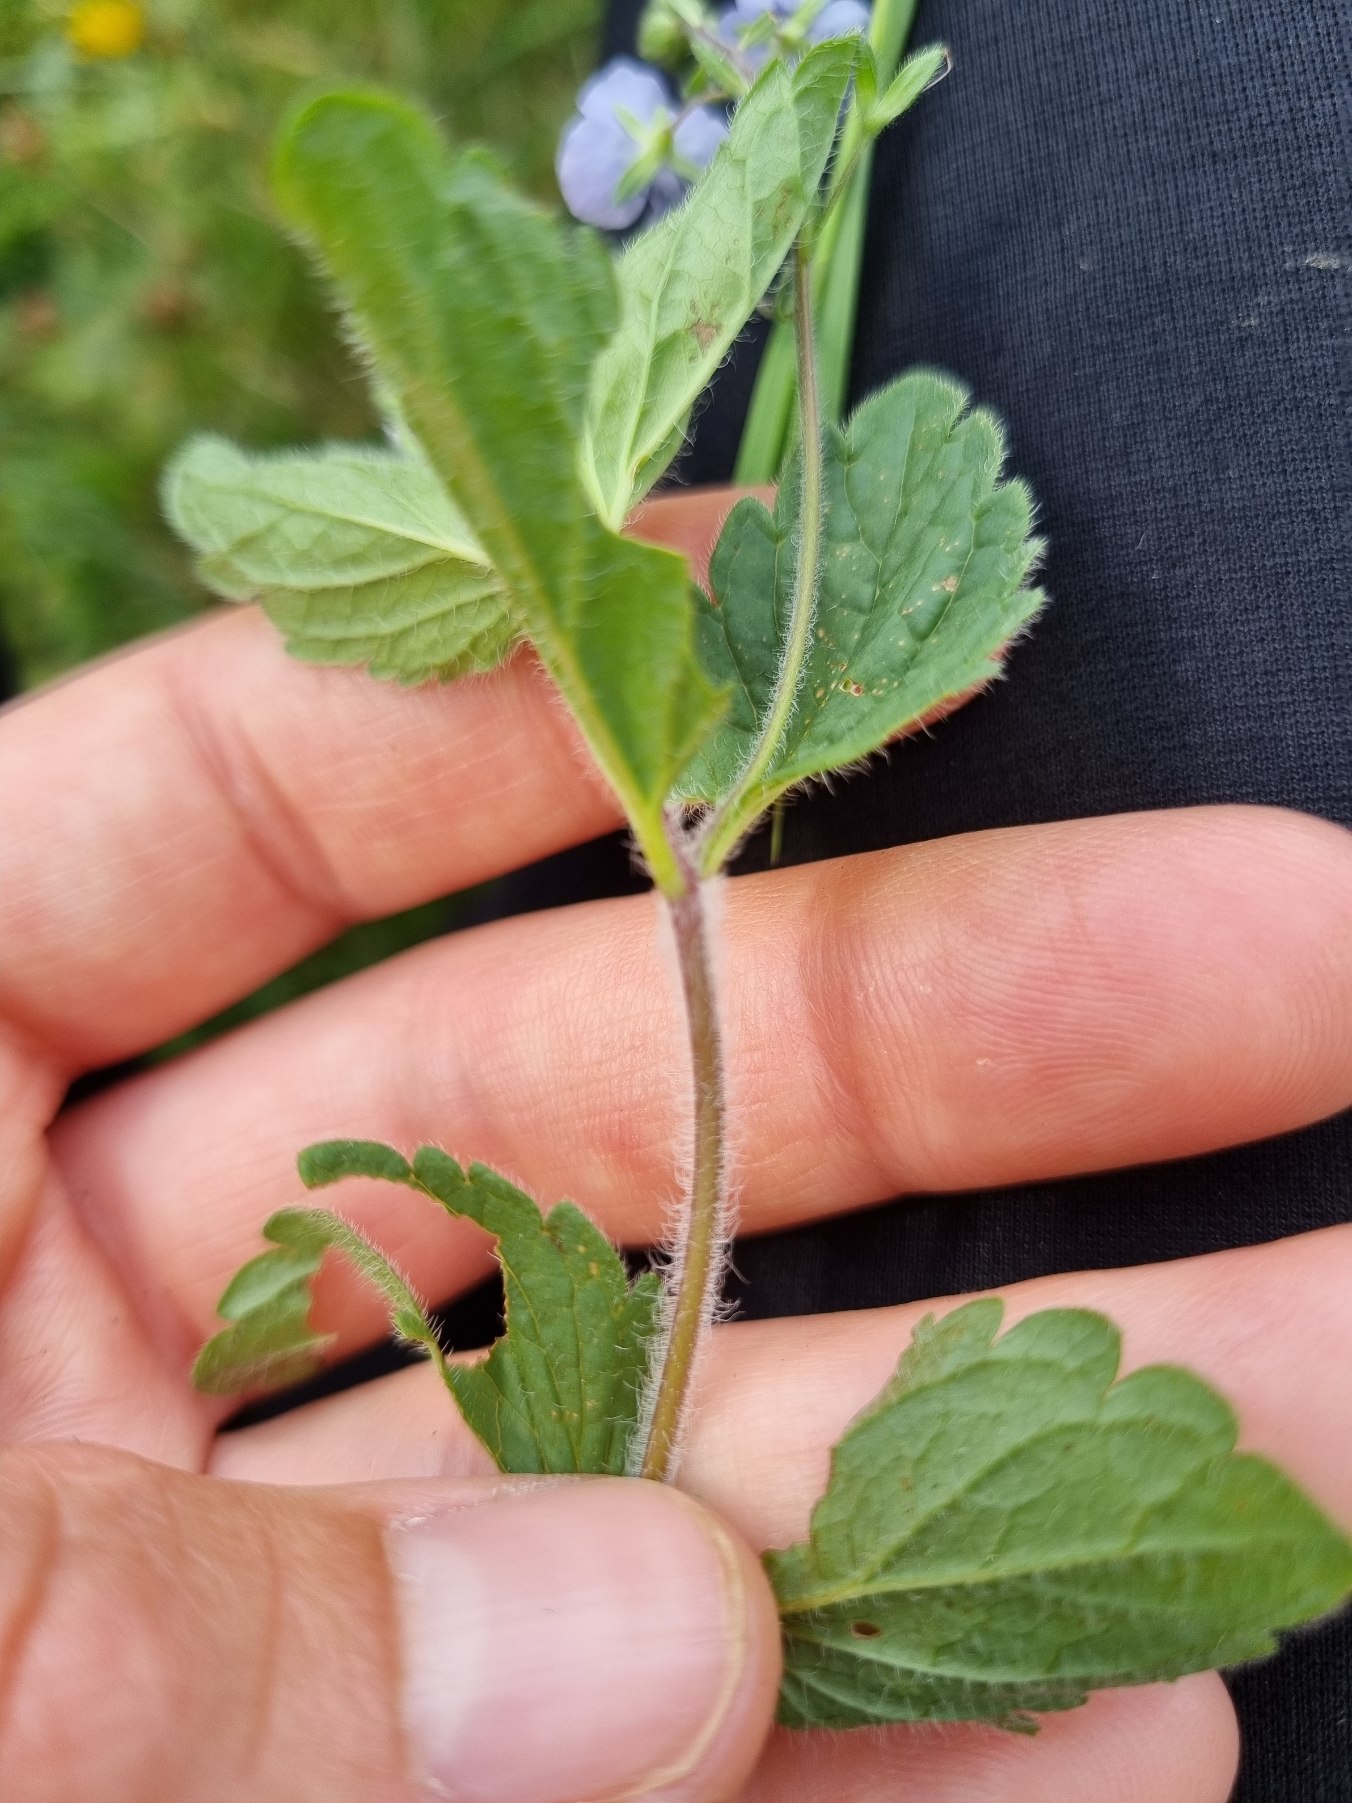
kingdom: Plantae
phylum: Tracheophyta
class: Magnoliopsida
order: Lamiales
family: Plantaginaceae
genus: Veronica
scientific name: Veronica chamaedrys
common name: Tveskægget ærenpris
